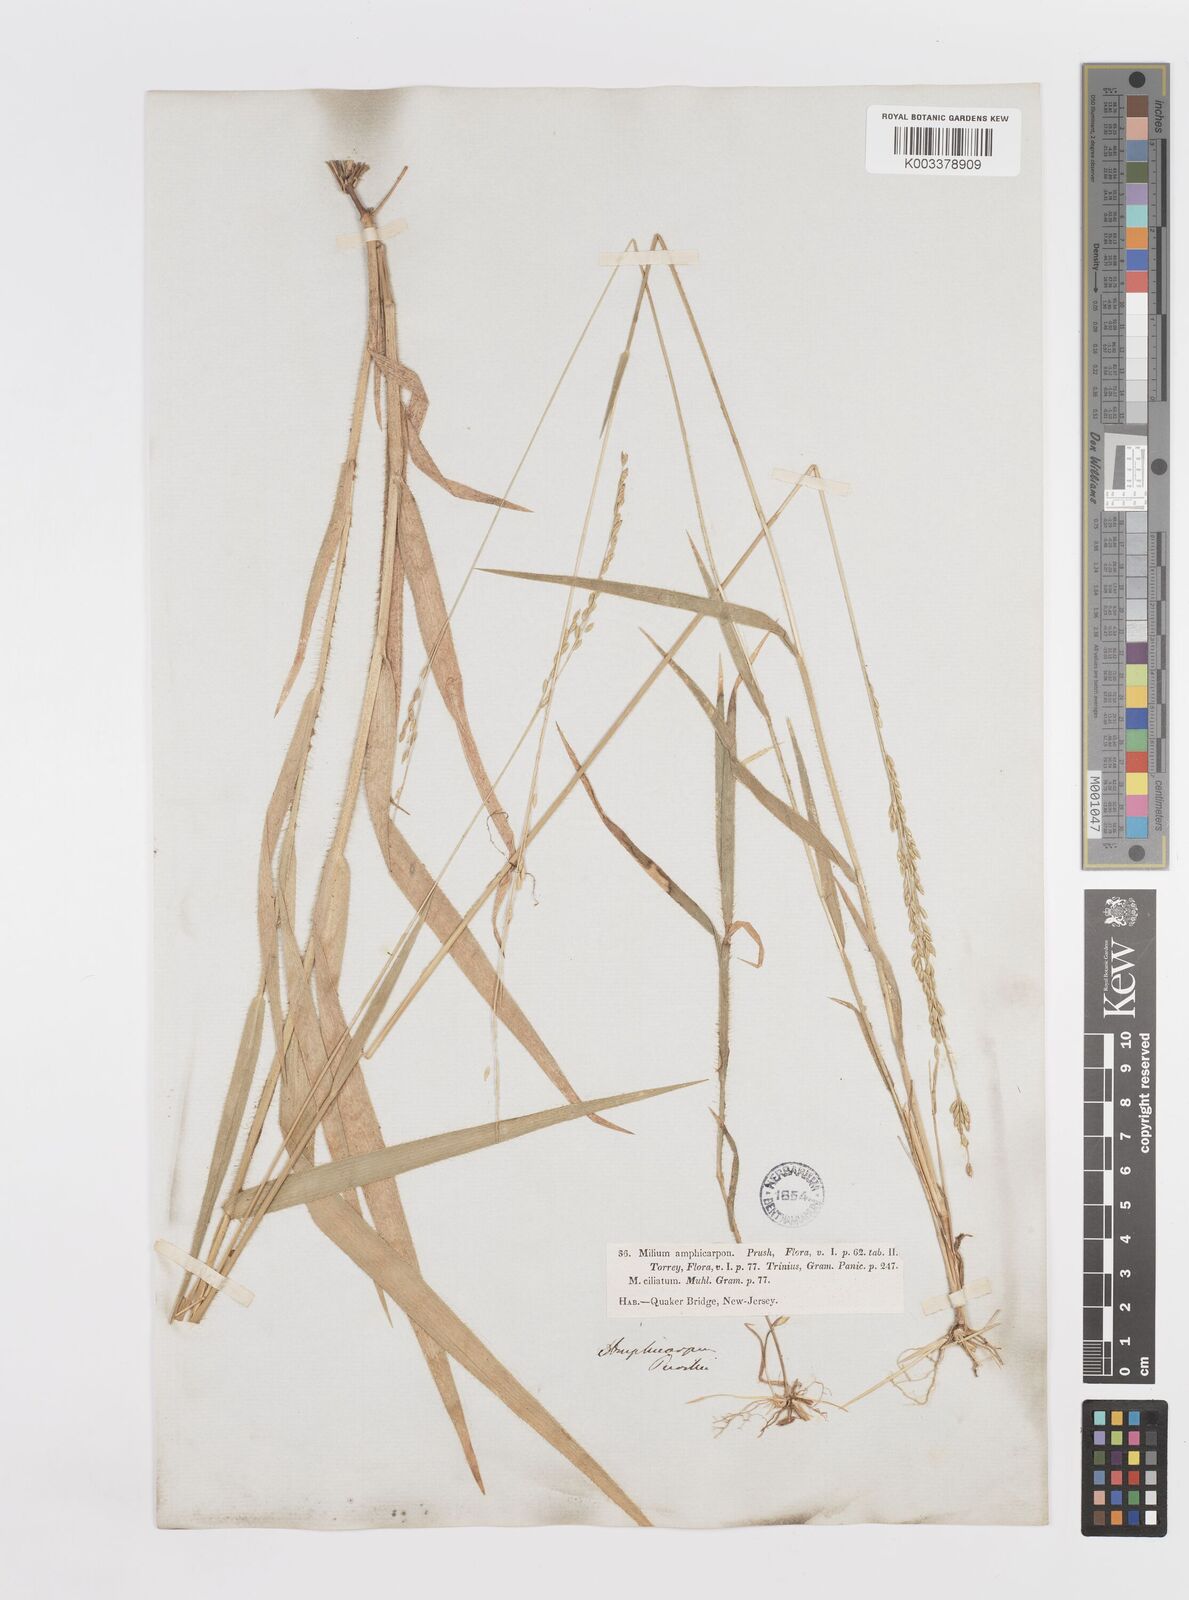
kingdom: Plantae
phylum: Tracheophyta
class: Liliopsida
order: Poales
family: Poaceae
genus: Amphicarpum
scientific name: Amphicarpum amphicarpon
